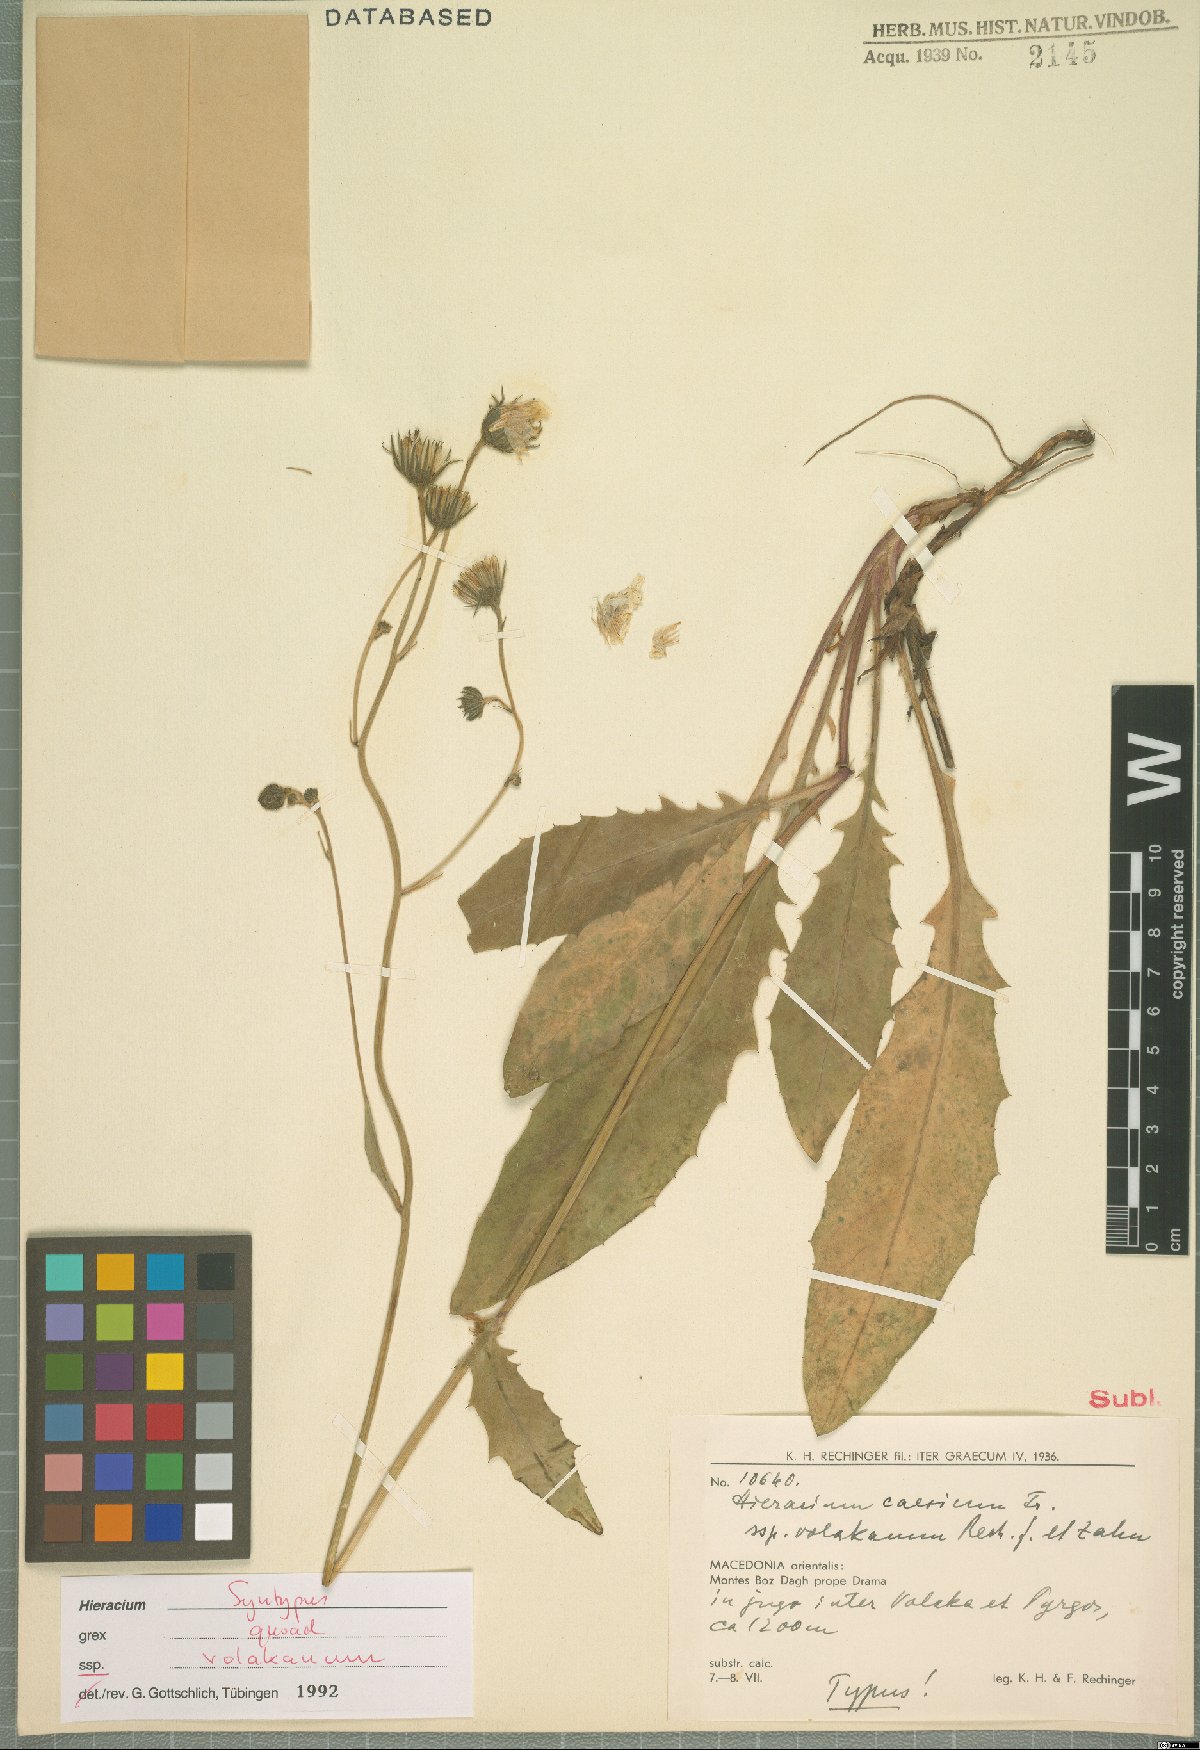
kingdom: Plantae
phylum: Tracheophyta
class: Magnoliopsida
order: Asterales
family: Asteraceae
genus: Hieracium
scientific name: Hieracium caesium
